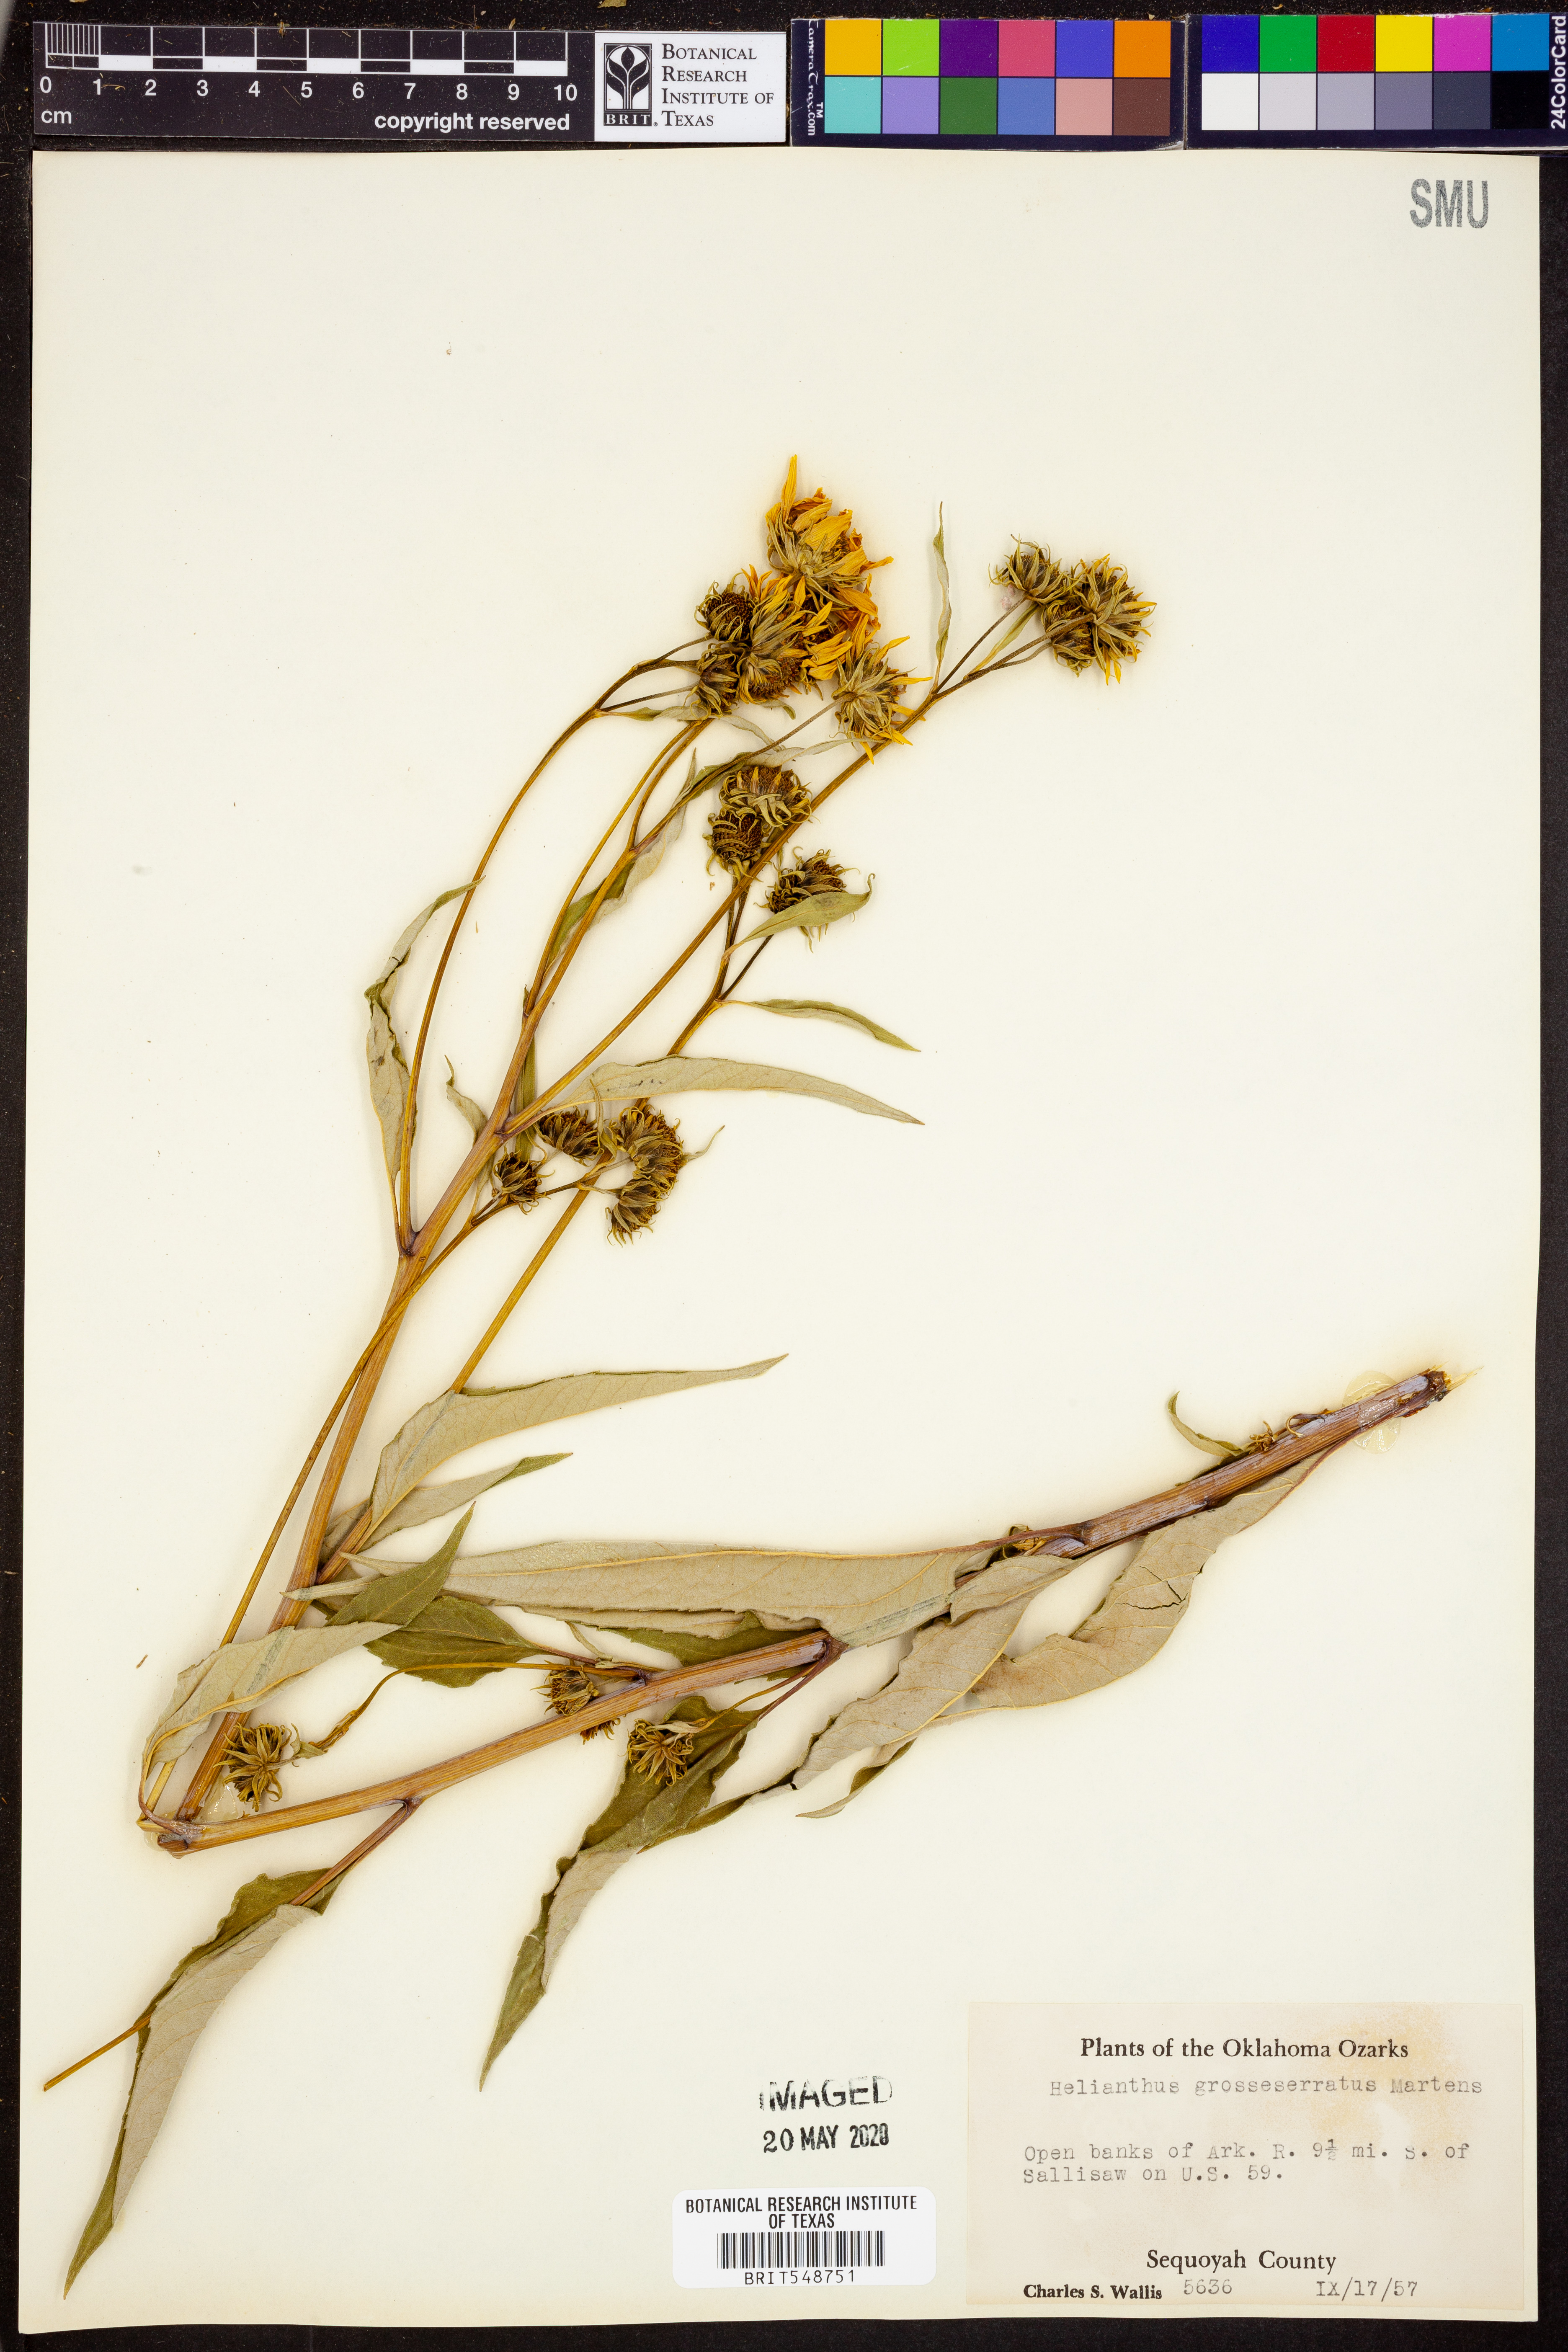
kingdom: Plantae
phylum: Tracheophyta
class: Magnoliopsida
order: Asterales
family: Asteraceae
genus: Helianthus
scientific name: Helianthus grosseserratus
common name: Sawtooth sunflower
